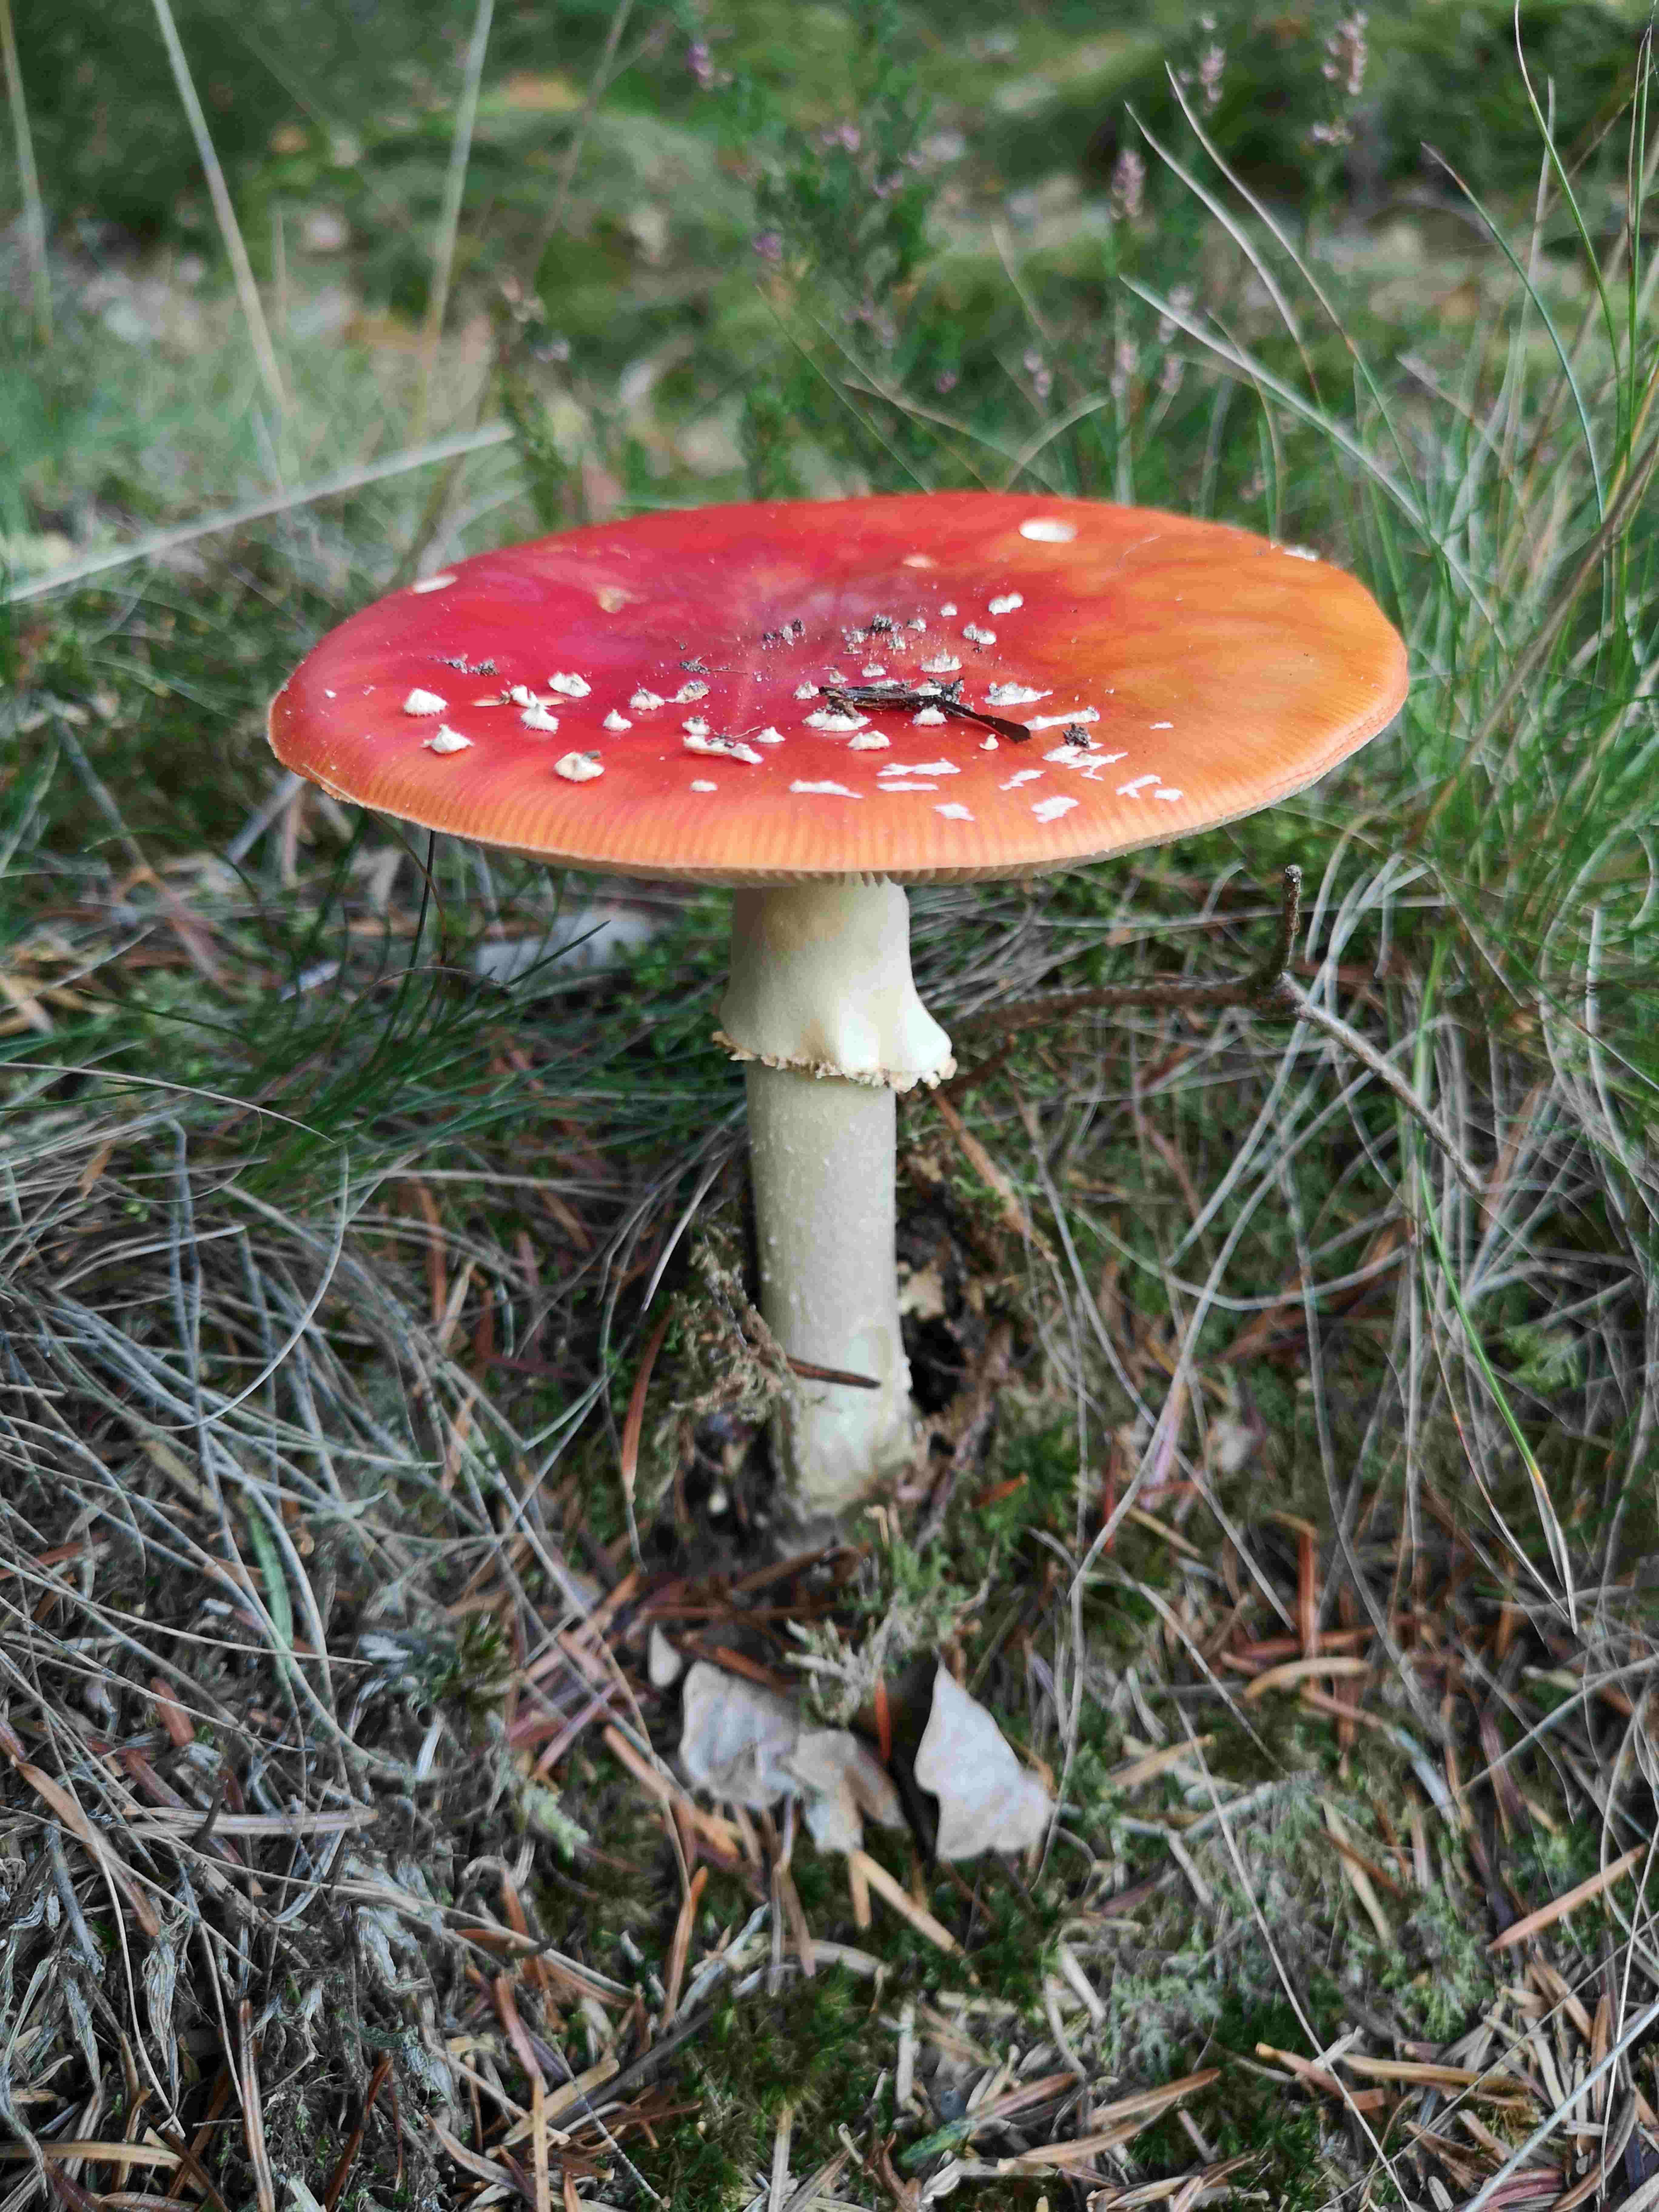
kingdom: Fungi
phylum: Basidiomycota
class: Agaricomycetes
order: Agaricales
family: Amanitaceae
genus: Amanita
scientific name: Amanita muscaria
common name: rød fluesvamp
